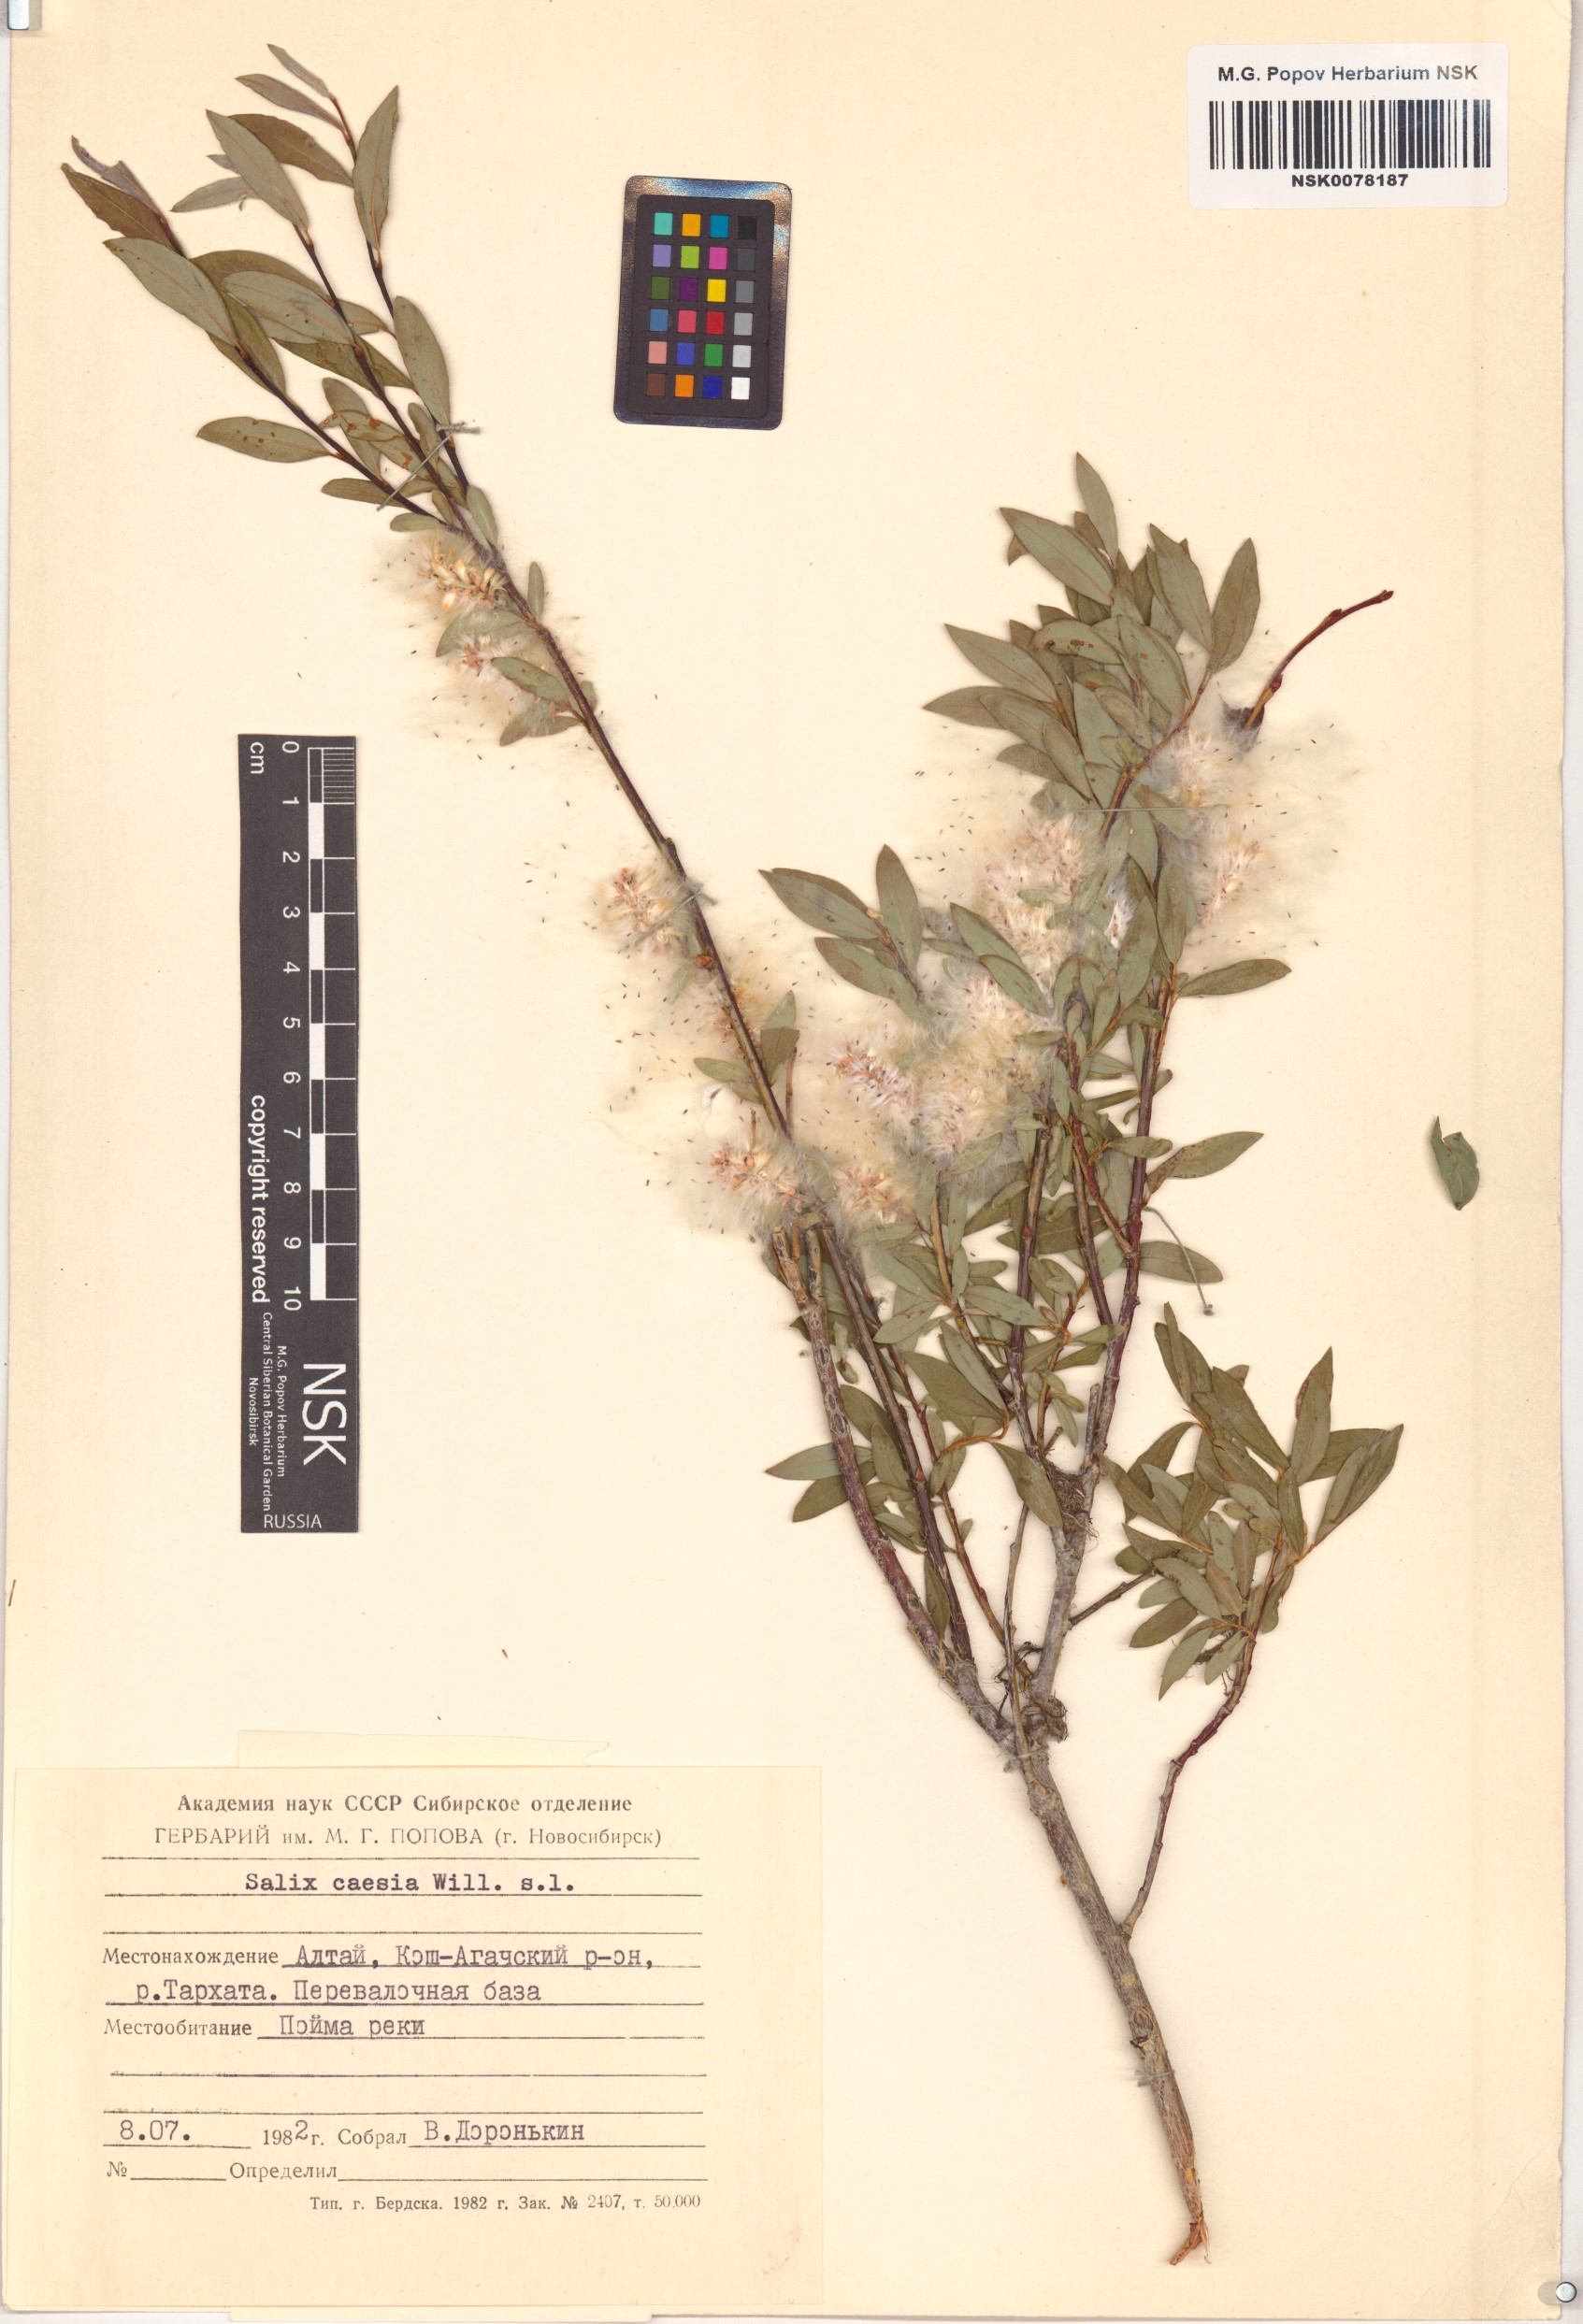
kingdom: Plantae
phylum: Tracheophyta
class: Magnoliopsida
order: Malpighiales
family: Salicaceae
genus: Salix
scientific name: Salix caesia
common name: Blue willow
